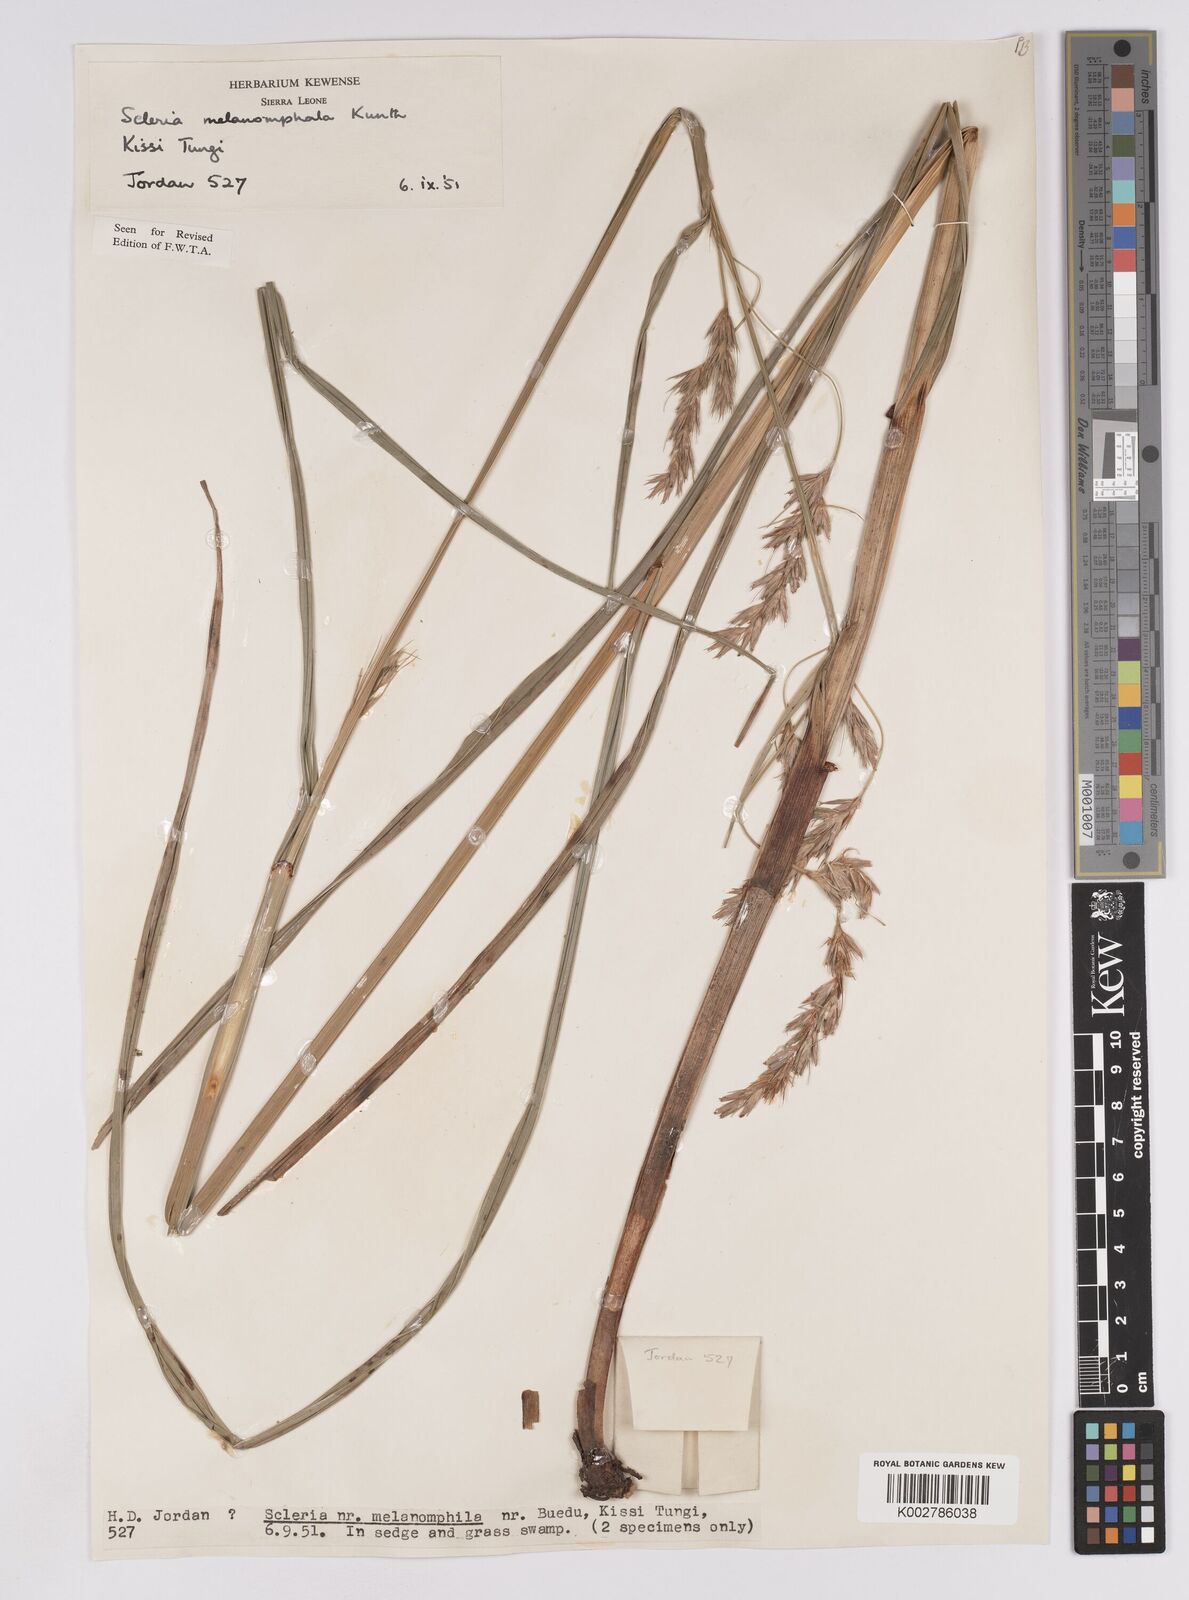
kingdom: Plantae
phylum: Tracheophyta
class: Liliopsida
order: Poales
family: Cyperaceae
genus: Scleria
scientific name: Scleria melanomphala
